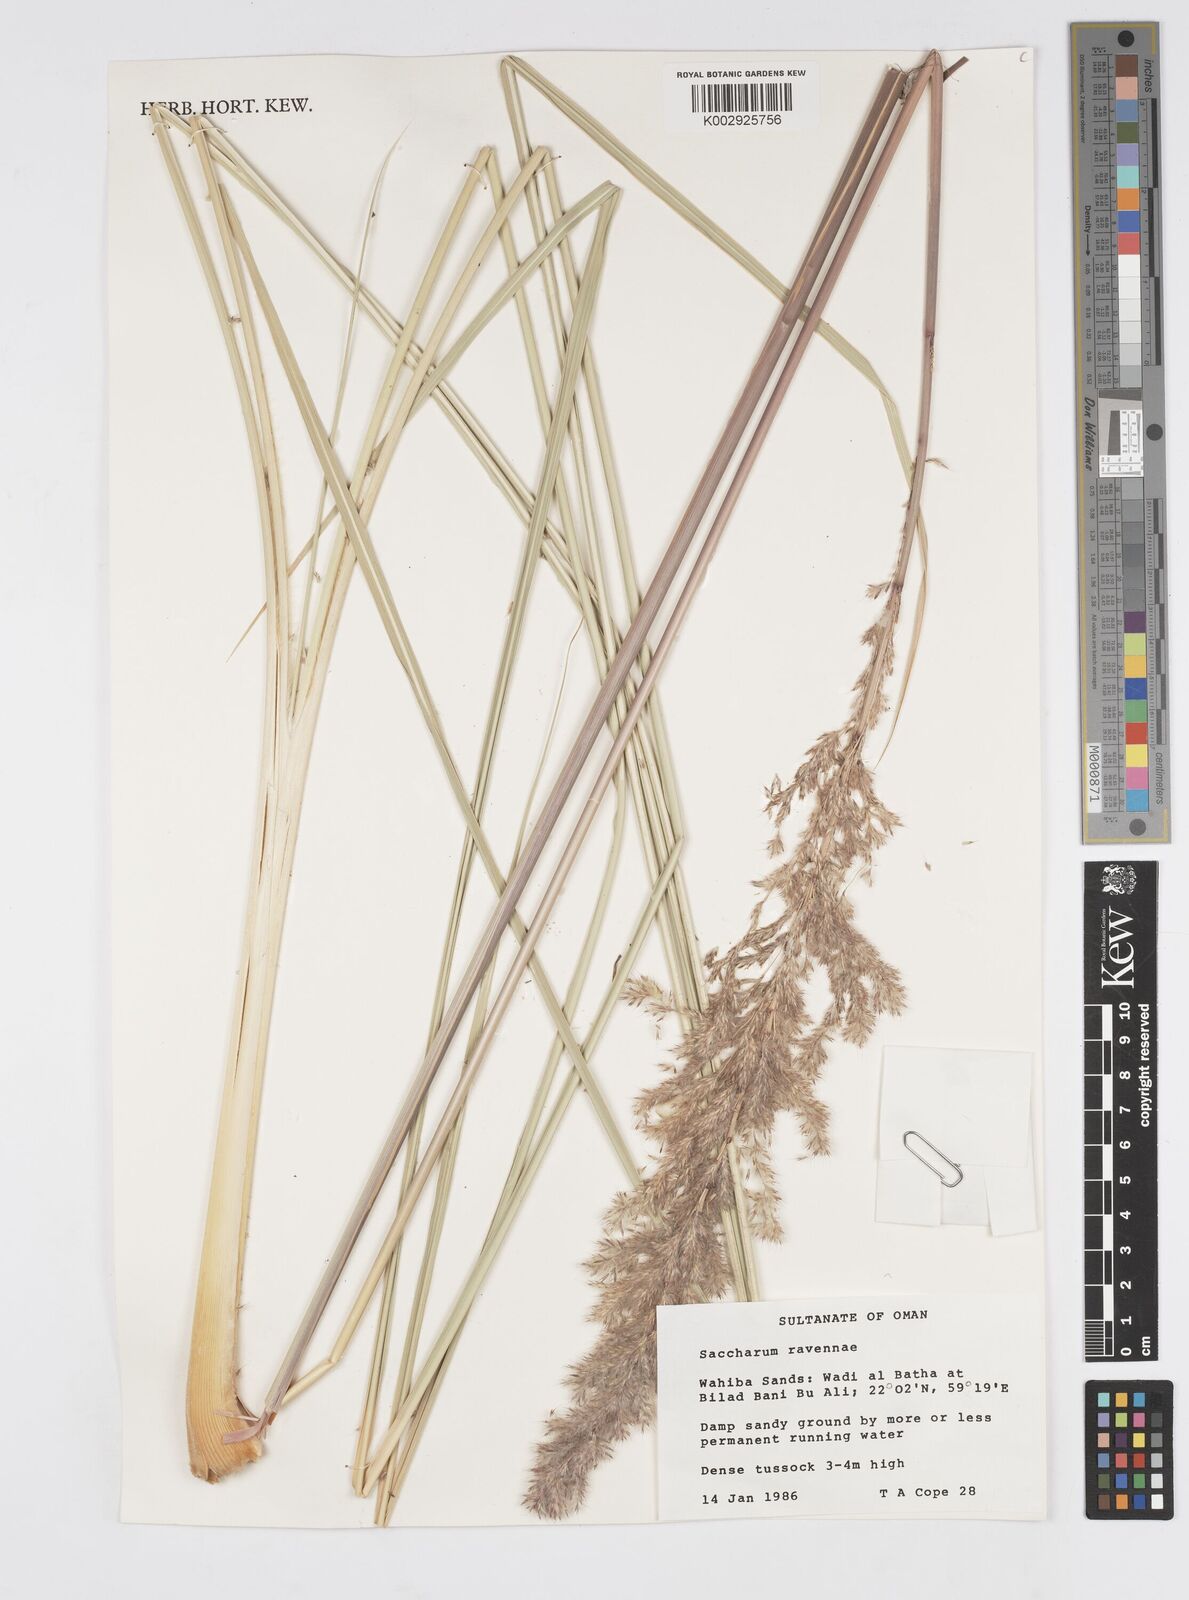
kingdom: Plantae
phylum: Tracheophyta
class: Liliopsida
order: Poales
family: Poaceae
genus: Tripidium
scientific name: Tripidium ravennae
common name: Ravenna grass
